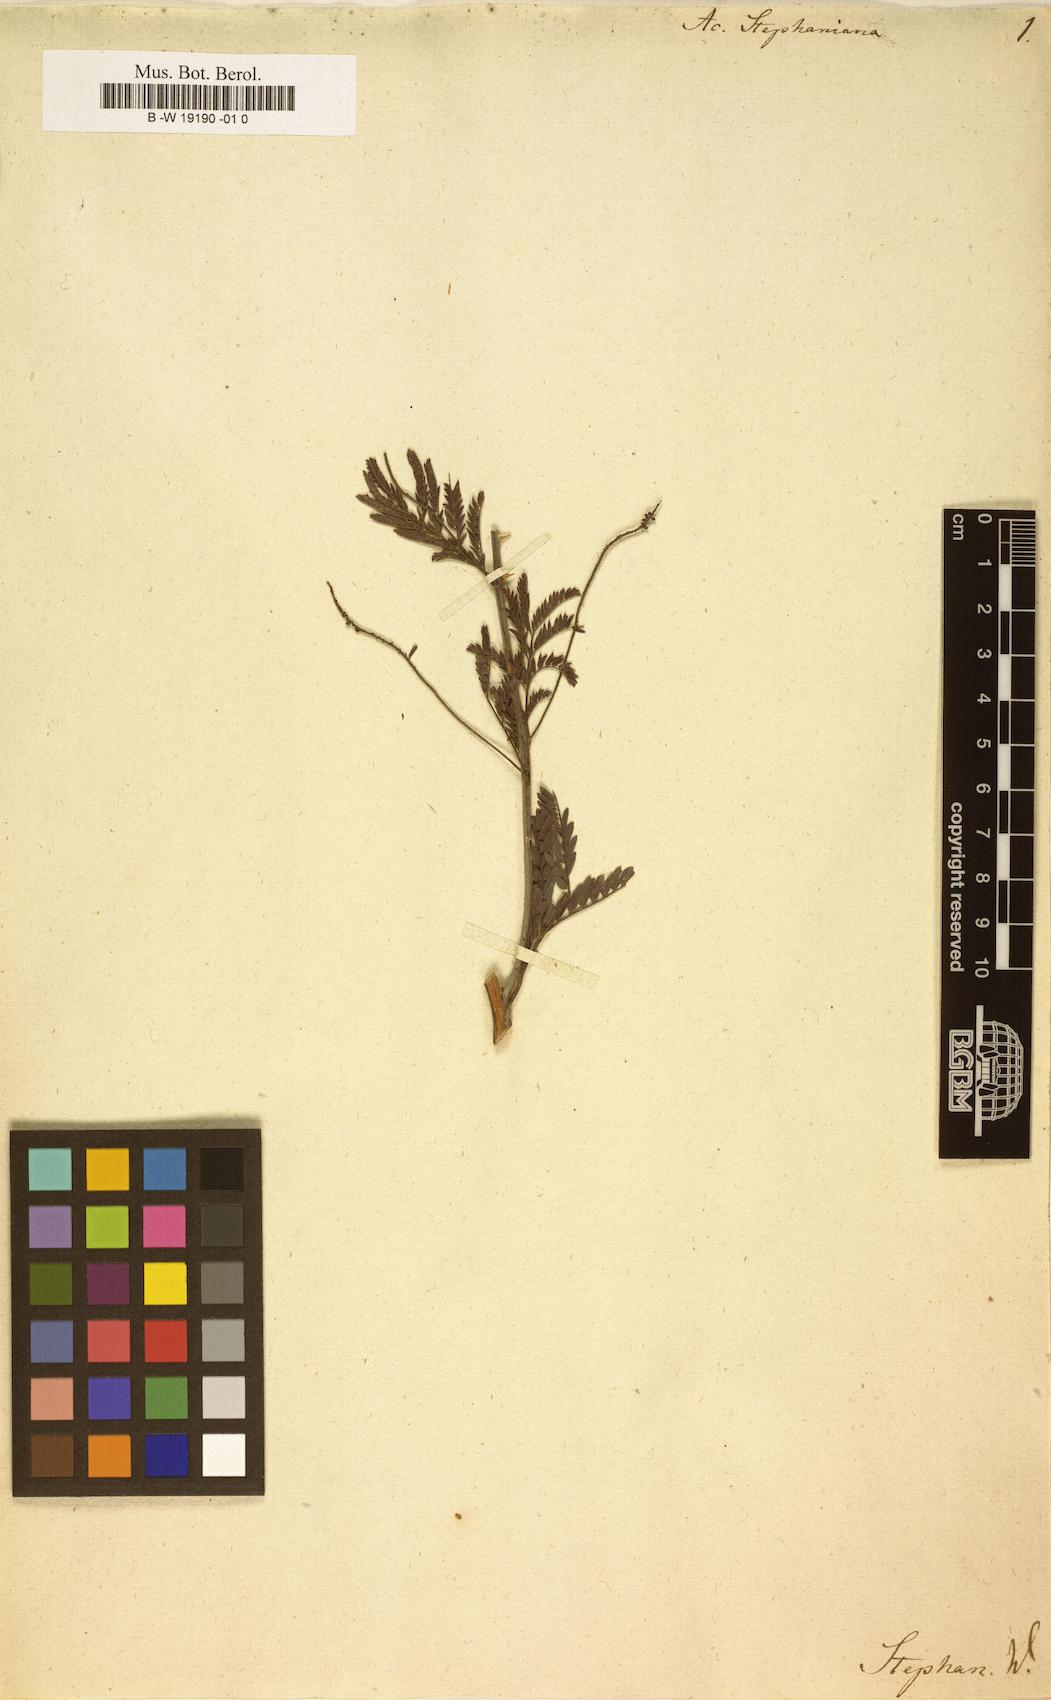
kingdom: Plantae
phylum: Tracheophyta
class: Magnoliopsida
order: Fabales
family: Fabaceae
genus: Prosopis
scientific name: Prosopis farcta
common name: Syrian mesquite
